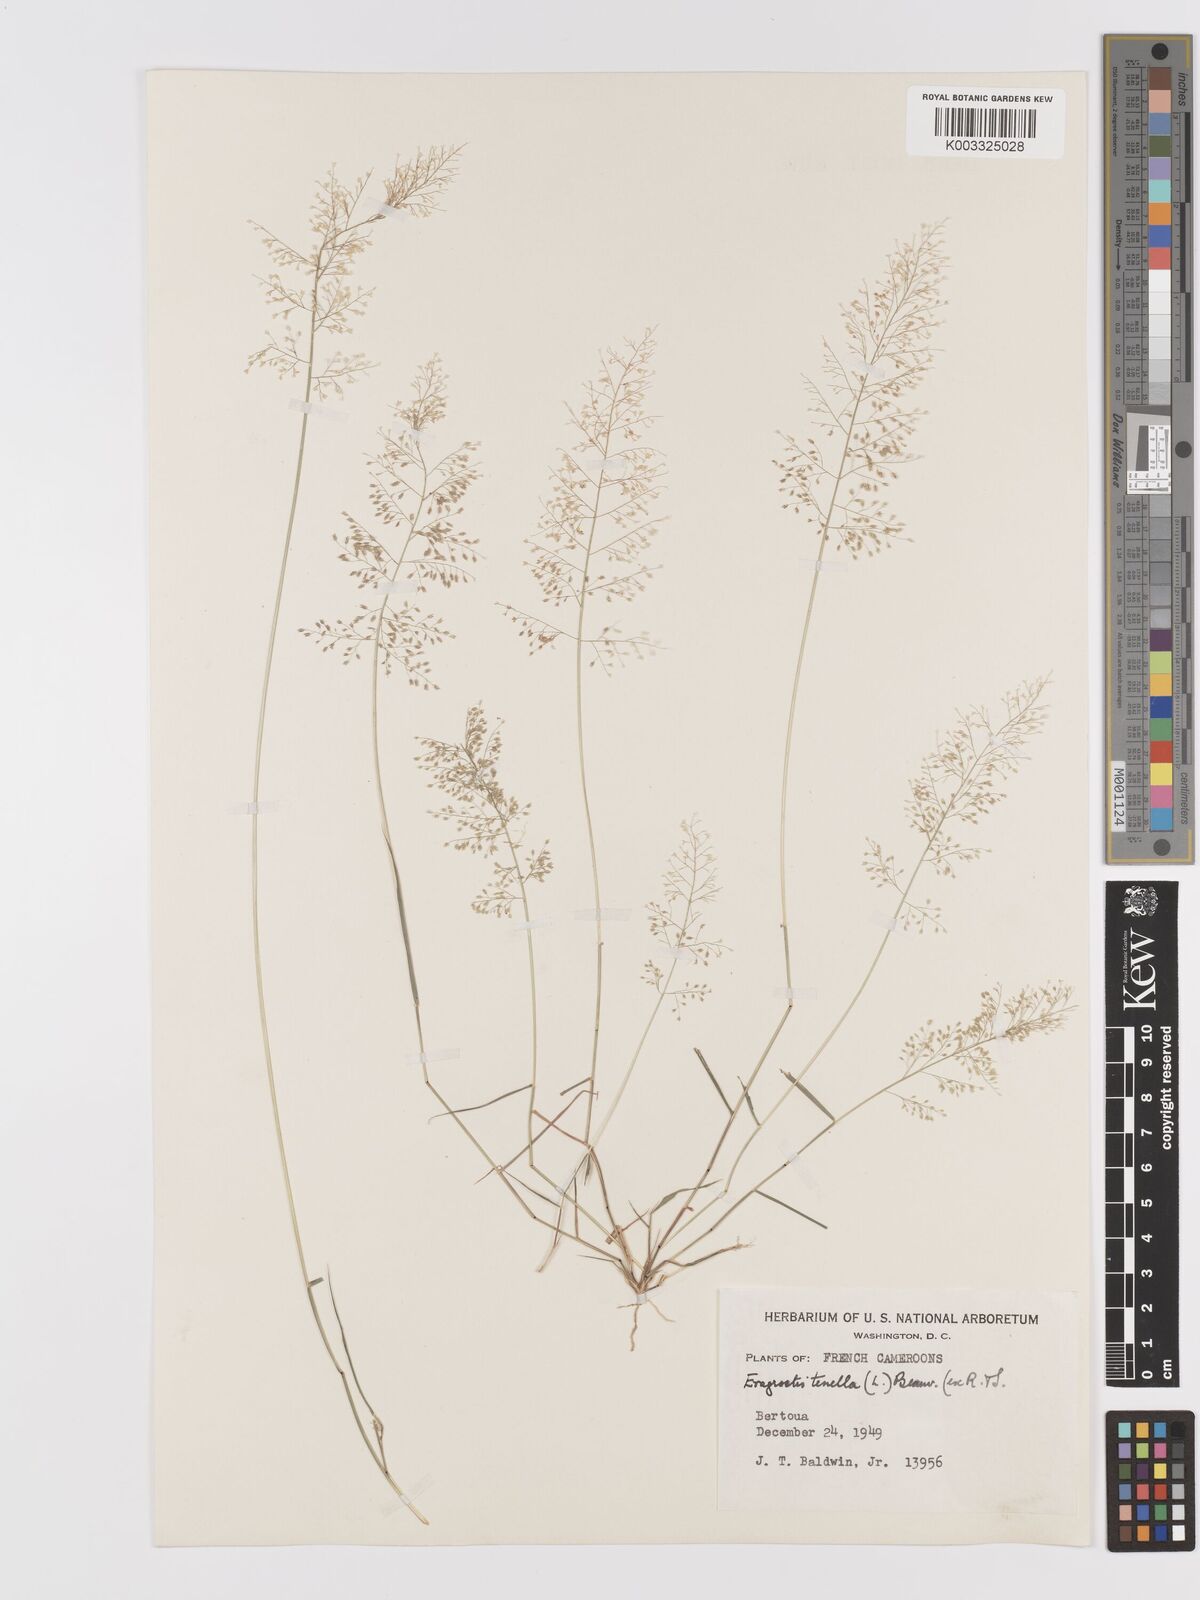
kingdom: Plantae
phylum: Tracheophyta
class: Liliopsida
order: Poales
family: Poaceae
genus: Eragrostis
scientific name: Eragrostis tenella
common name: Japanese lovegrass
